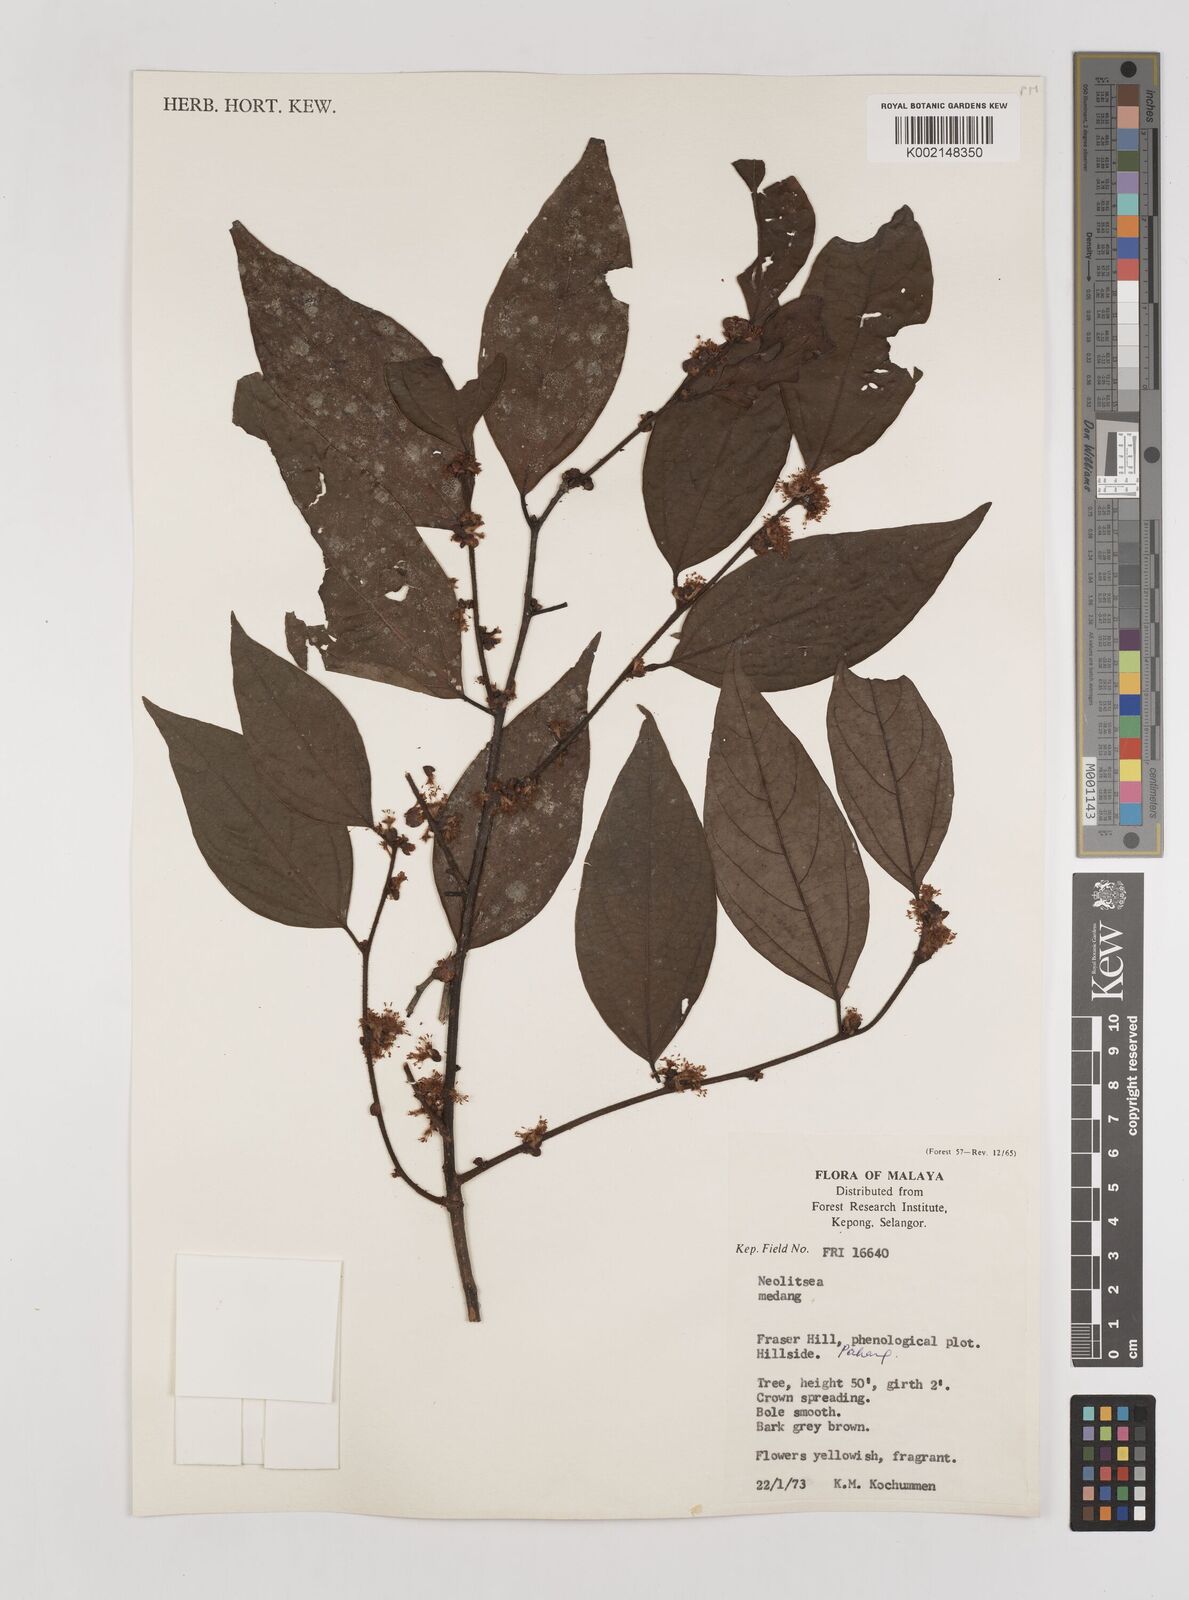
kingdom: Plantae
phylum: Tracheophyta
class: Magnoliopsida
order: Laurales
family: Lauraceae
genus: Neolitsea
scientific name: Neolitsea
